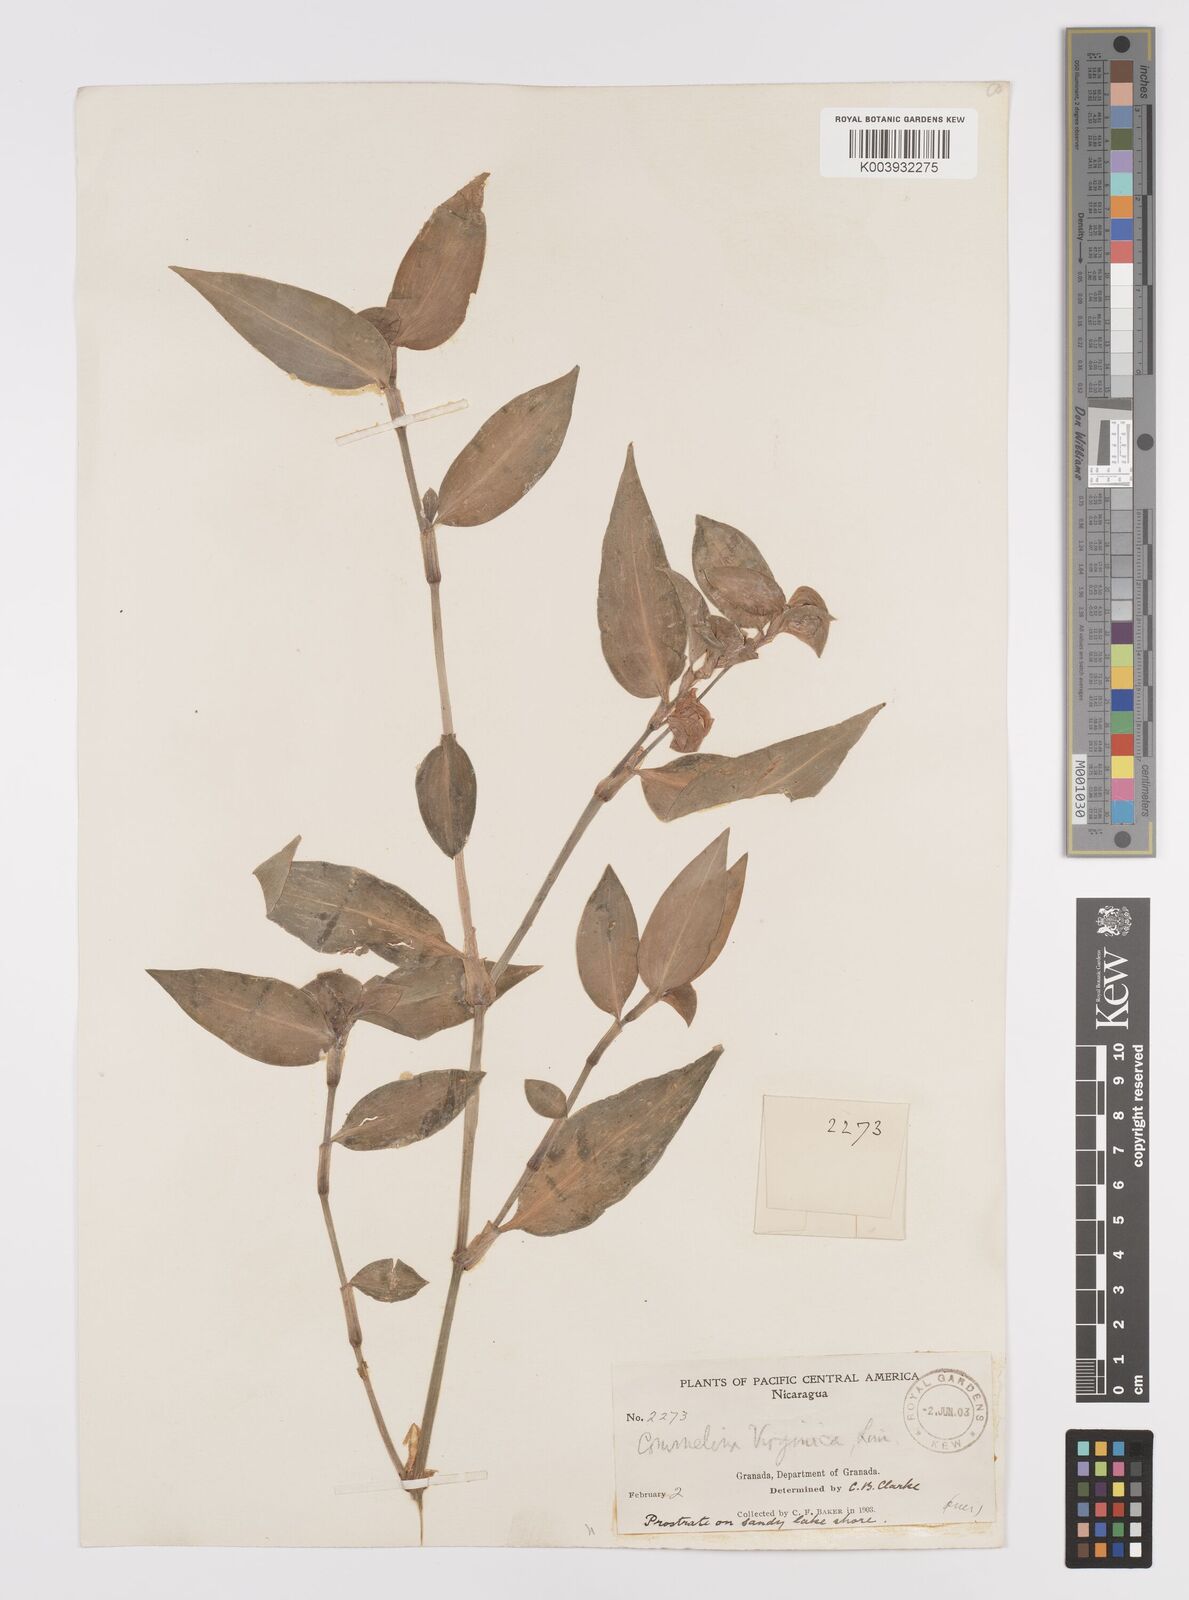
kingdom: Plantae
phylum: Tracheophyta
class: Liliopsida
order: Commelinales
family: Commelinaceae
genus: Commelina
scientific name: Commelina erecta
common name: Blousel blommetjie
